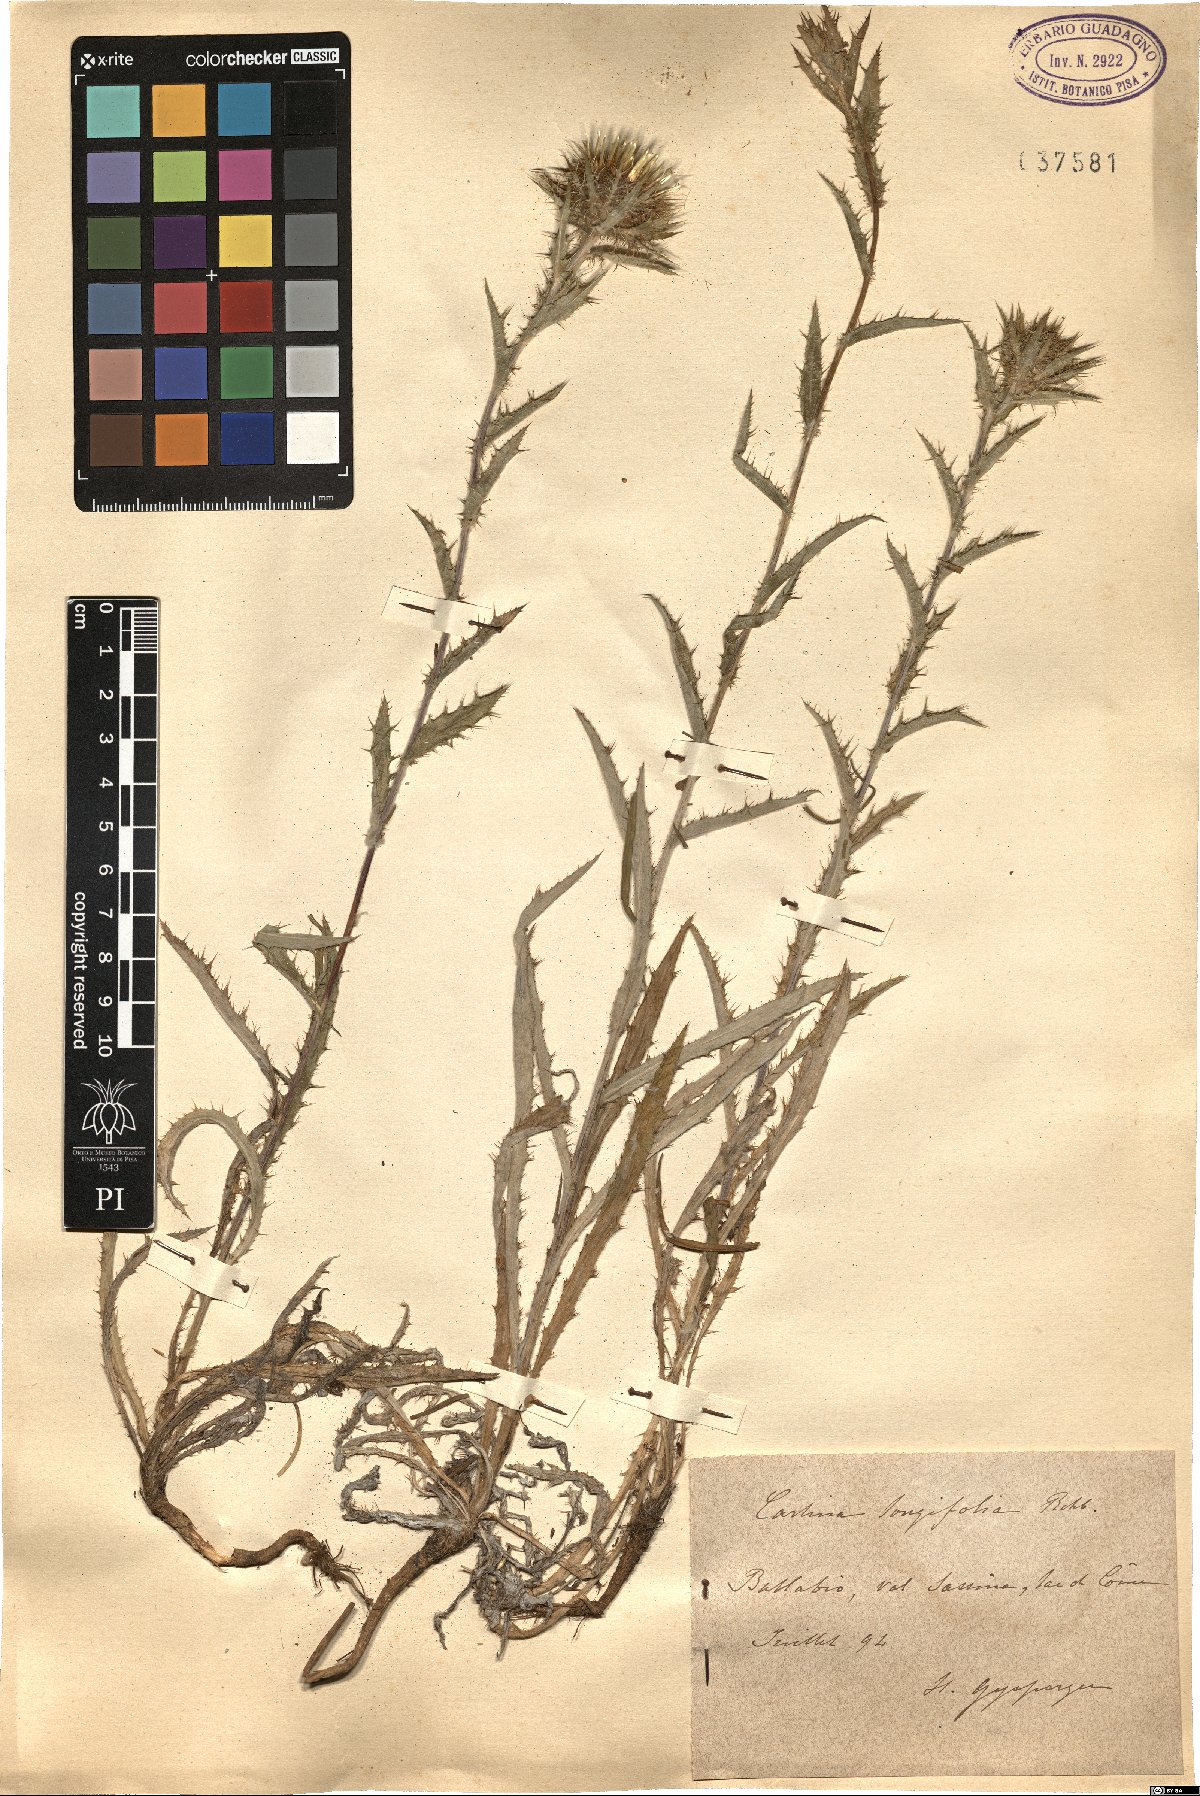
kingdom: Plantae
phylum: Tracheophyta
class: Magnoliopsida
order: Asterales
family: Asteraceae
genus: Carlina
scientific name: Carlina biebersteinii
